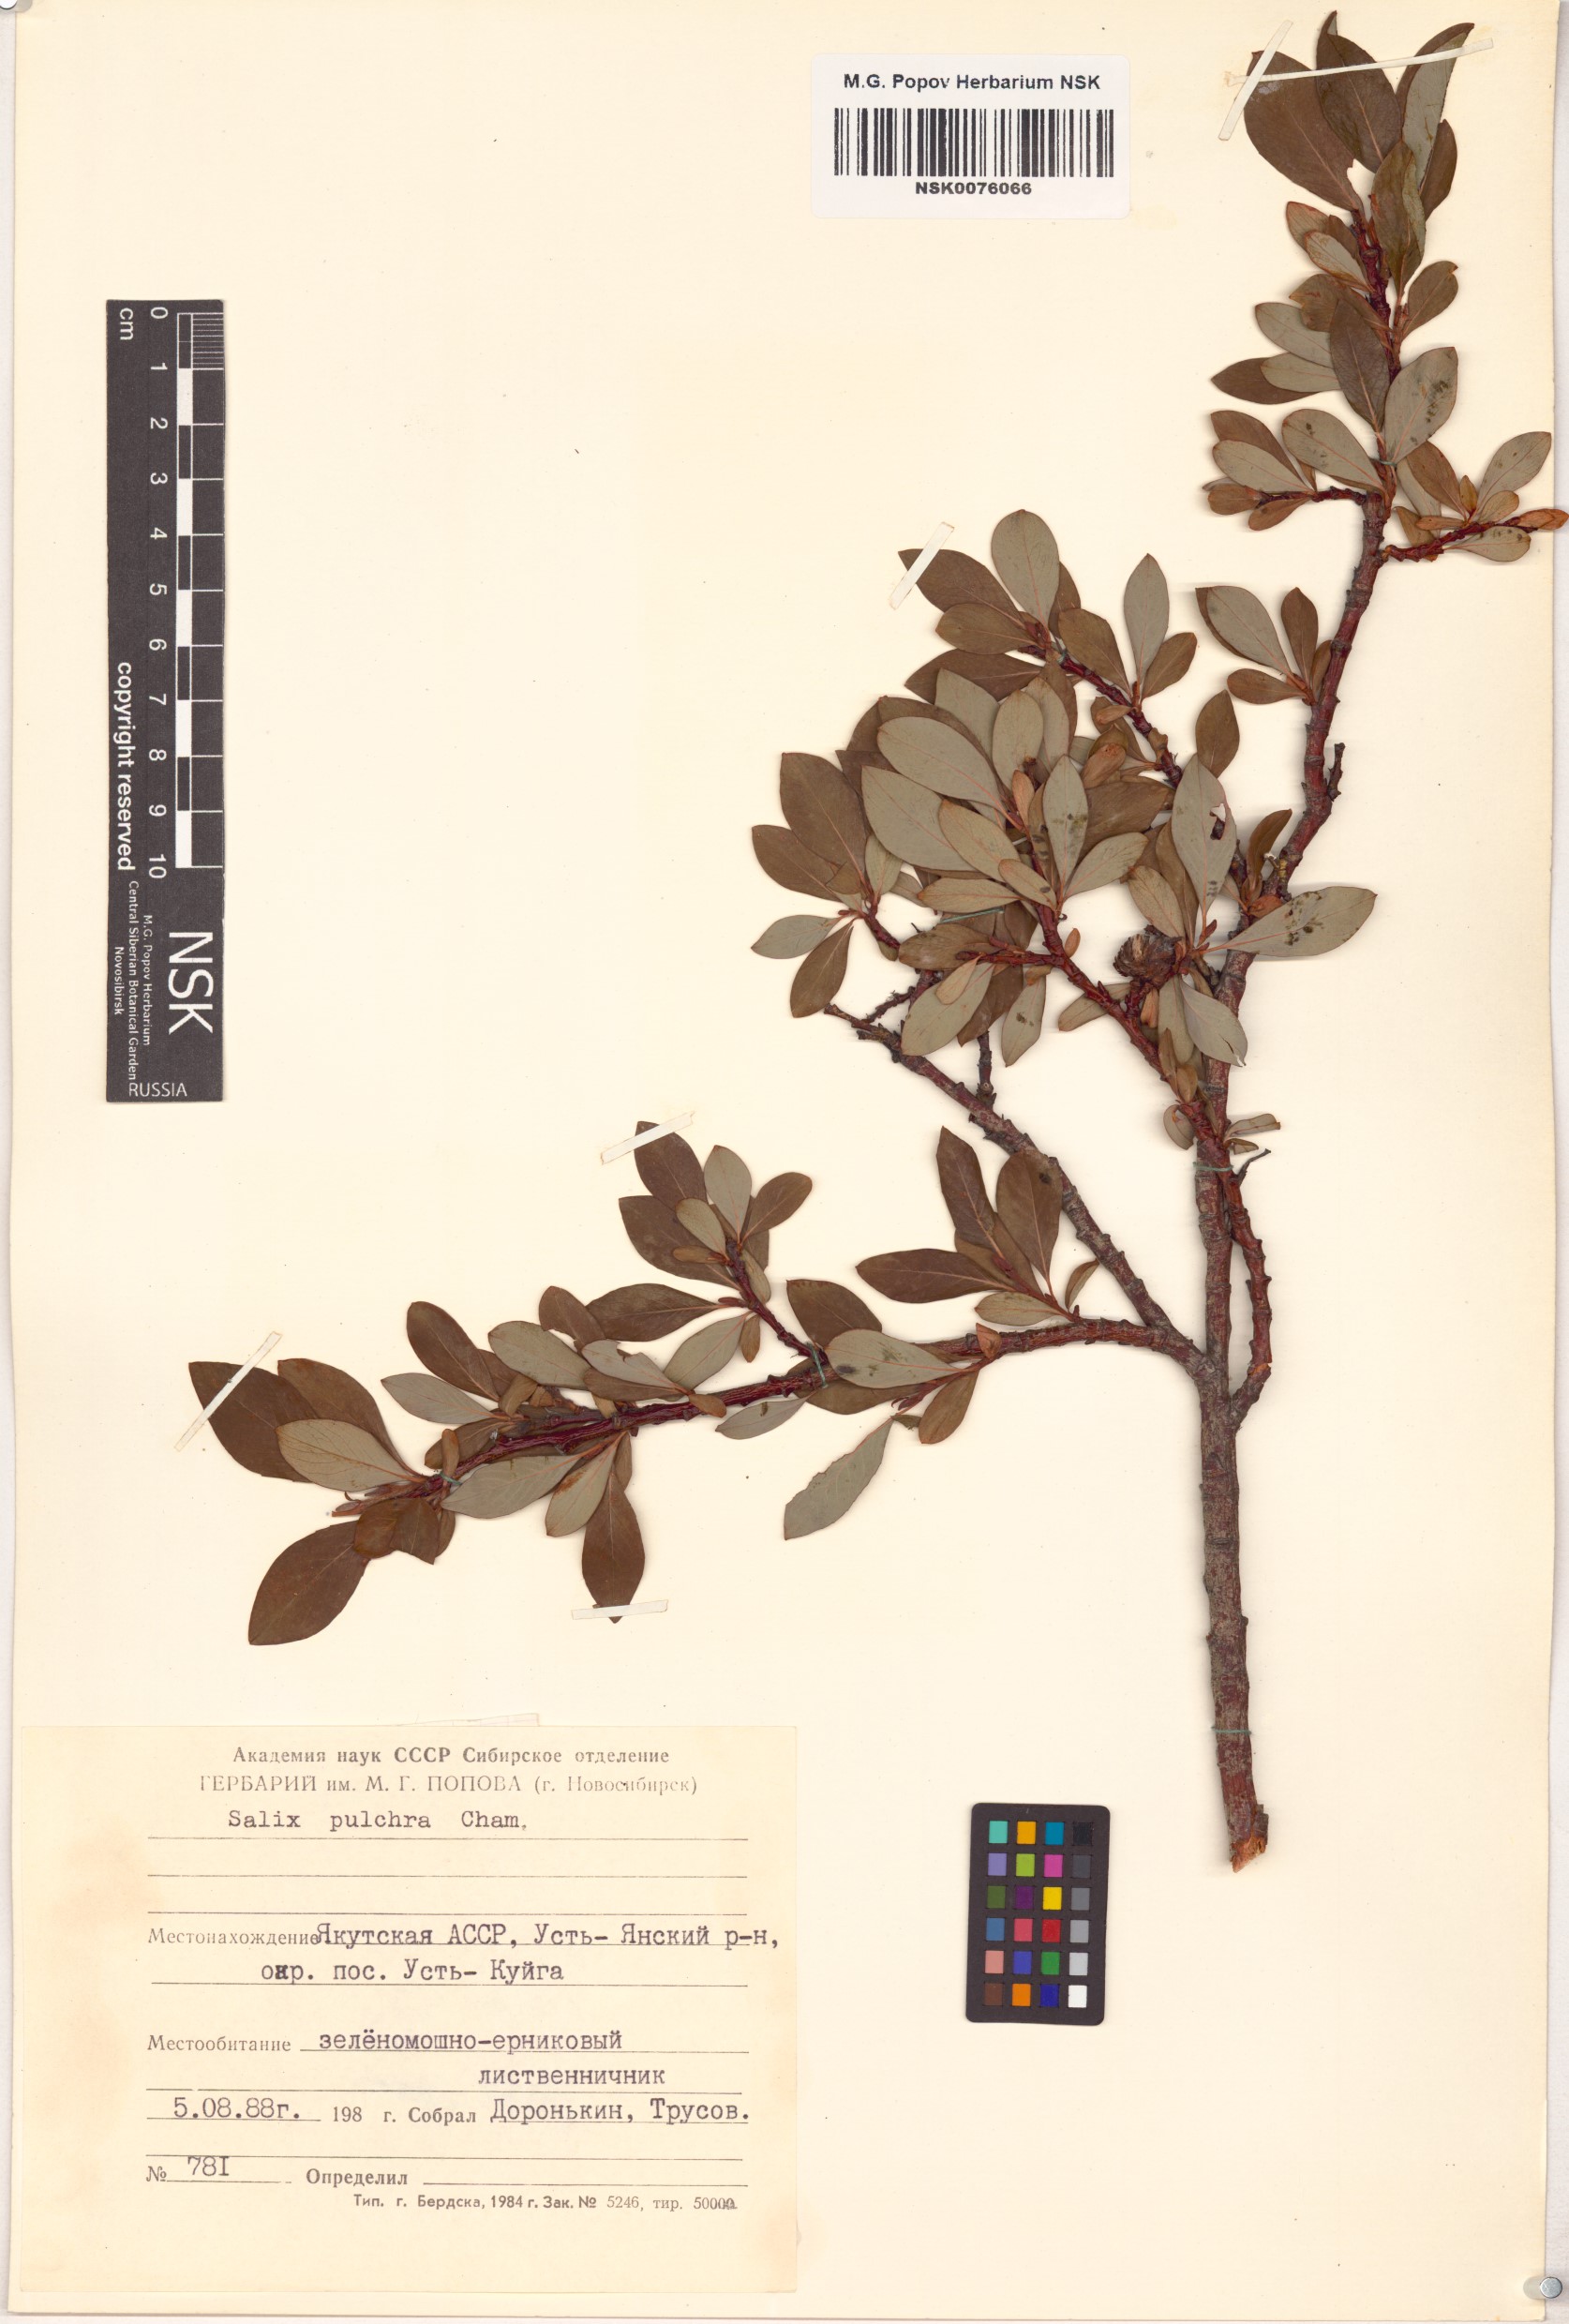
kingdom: Plantae
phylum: Tracheophyta
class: Magnoliopsida
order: Malpighiales
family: Salicaceae
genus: Salix
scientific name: Salix pulchra
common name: Diamond-leaved willow
